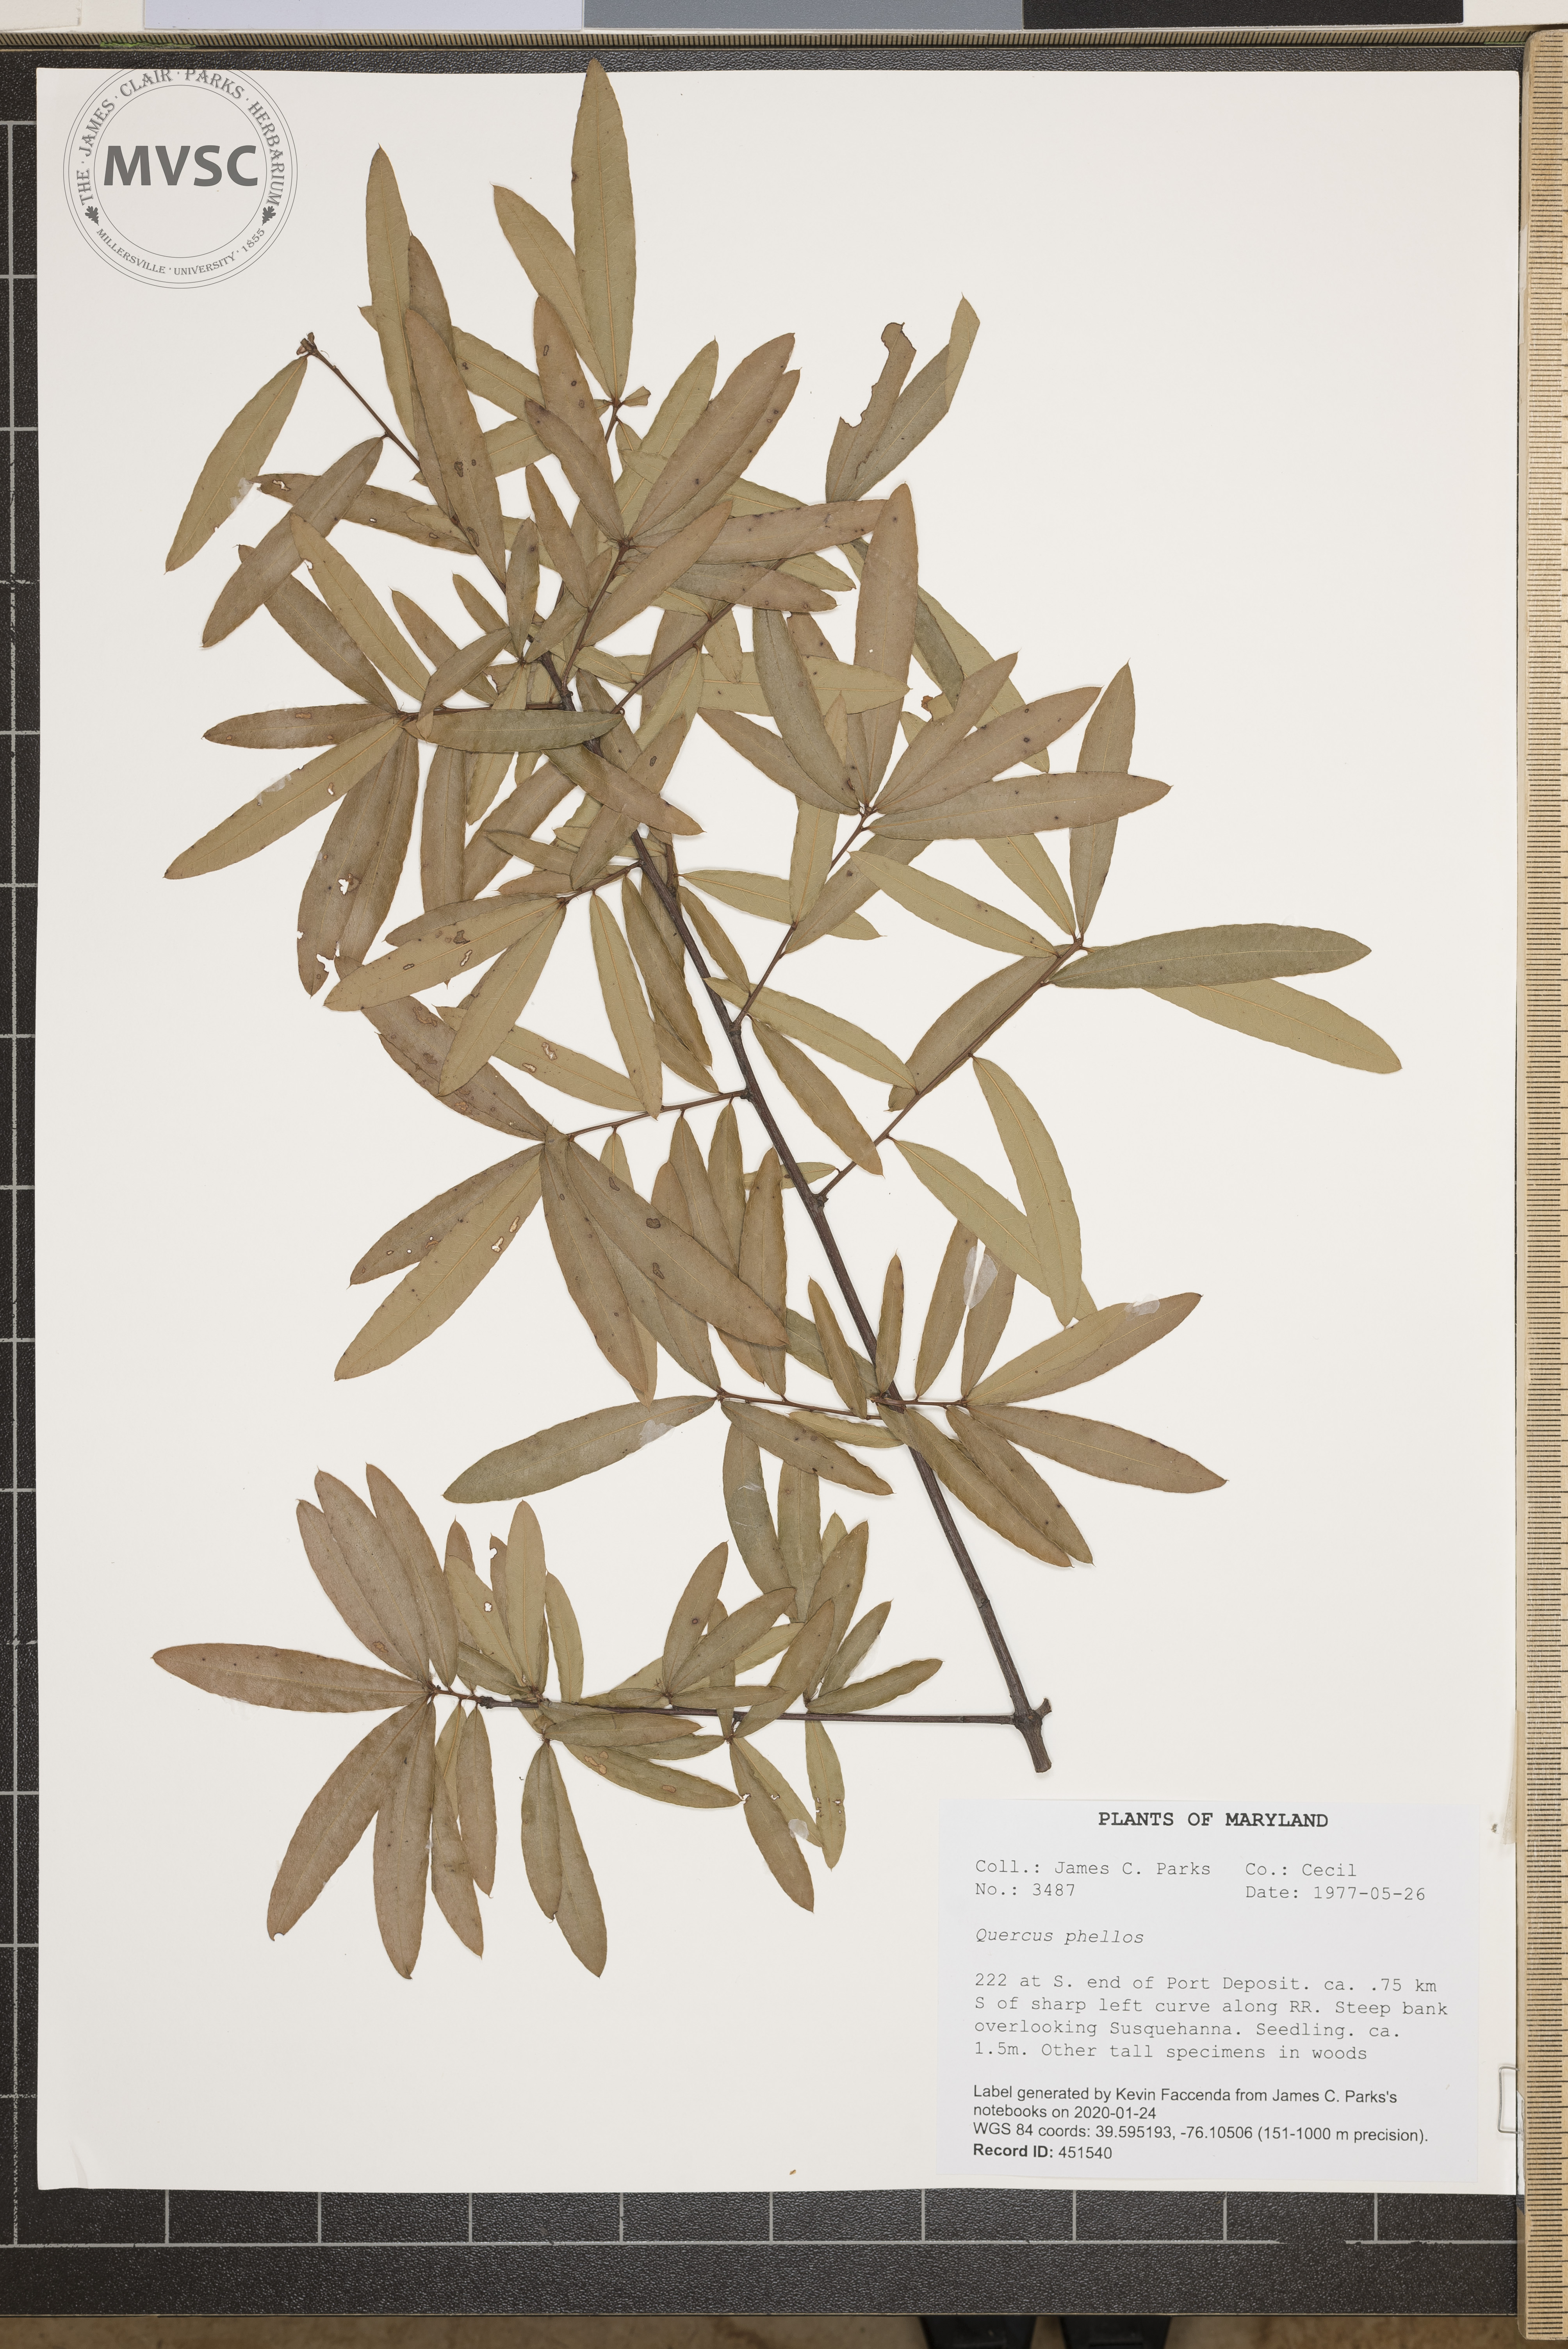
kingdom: Plantae
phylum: Tracheophyta
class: Magnoliopsida
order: Fagales
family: Fagaceae
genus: Quercus
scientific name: Quercus phellos
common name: Willow oak
